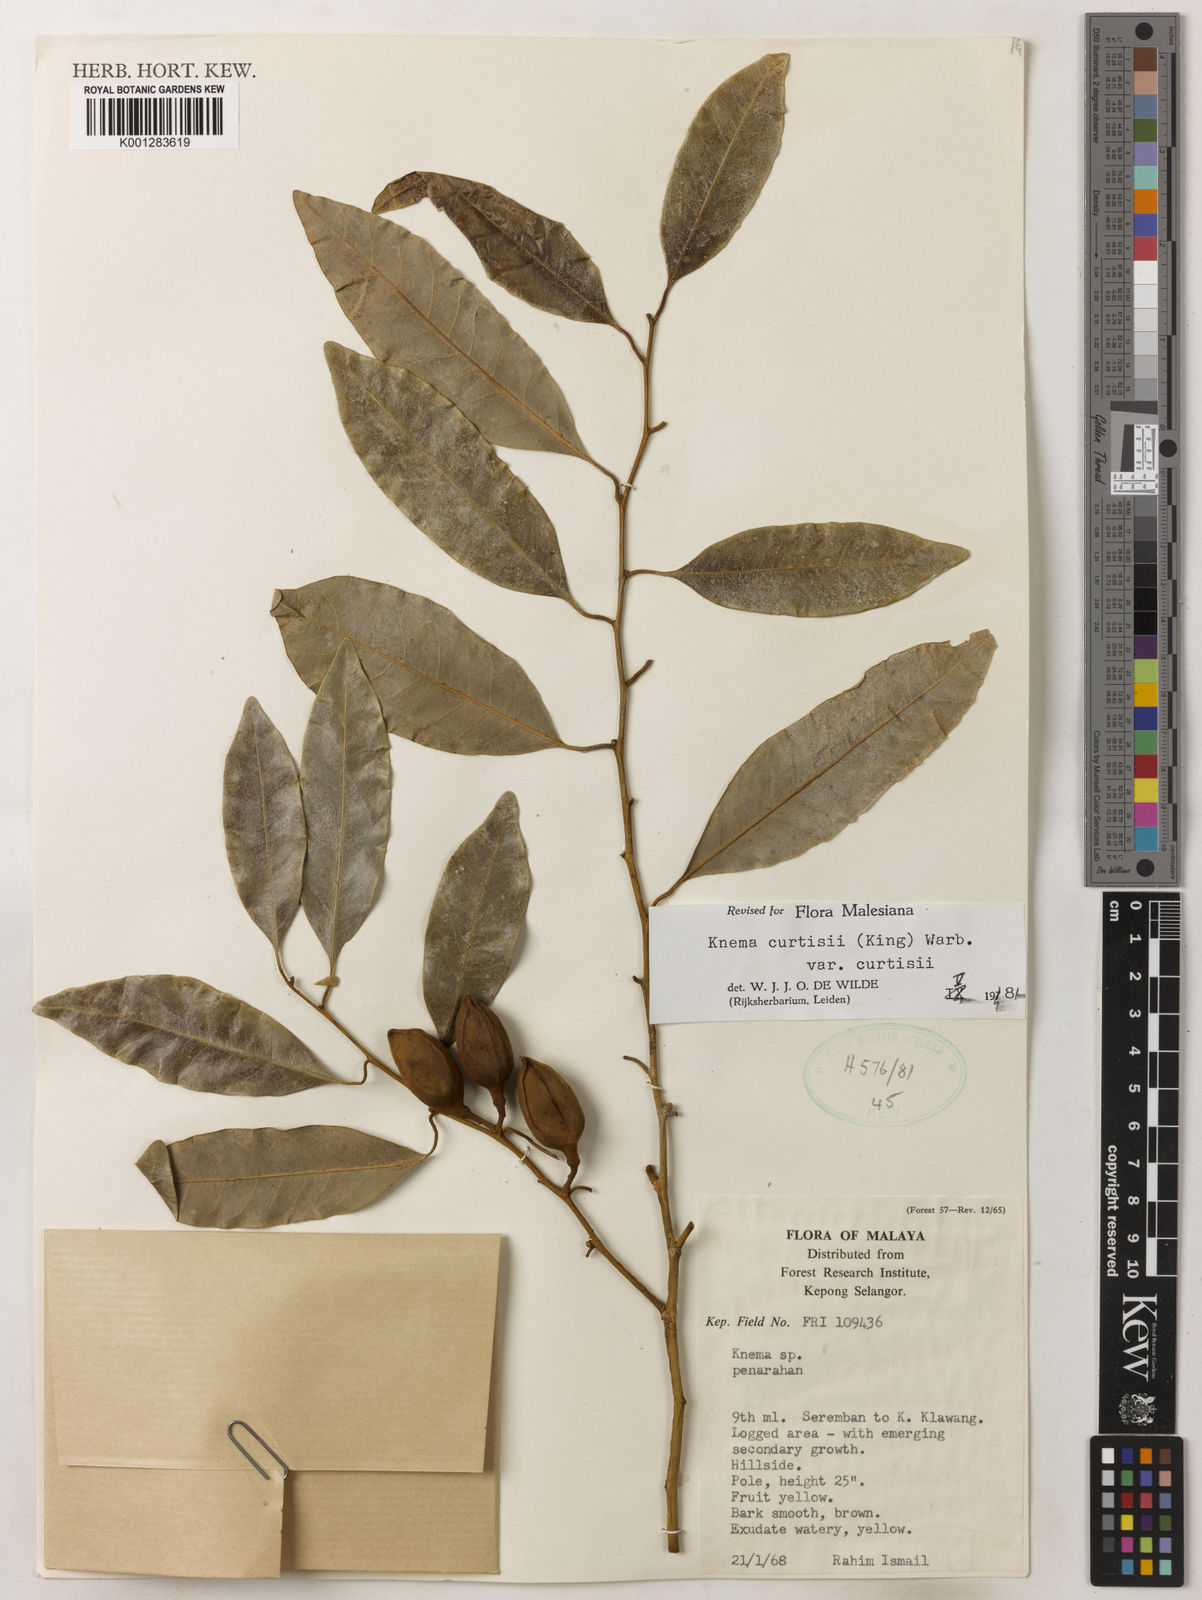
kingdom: Plantae
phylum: Tracheophyta
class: Magnoliopsida
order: Magnoliales
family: Myristicaceae
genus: Knema
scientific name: Knema curtisii
